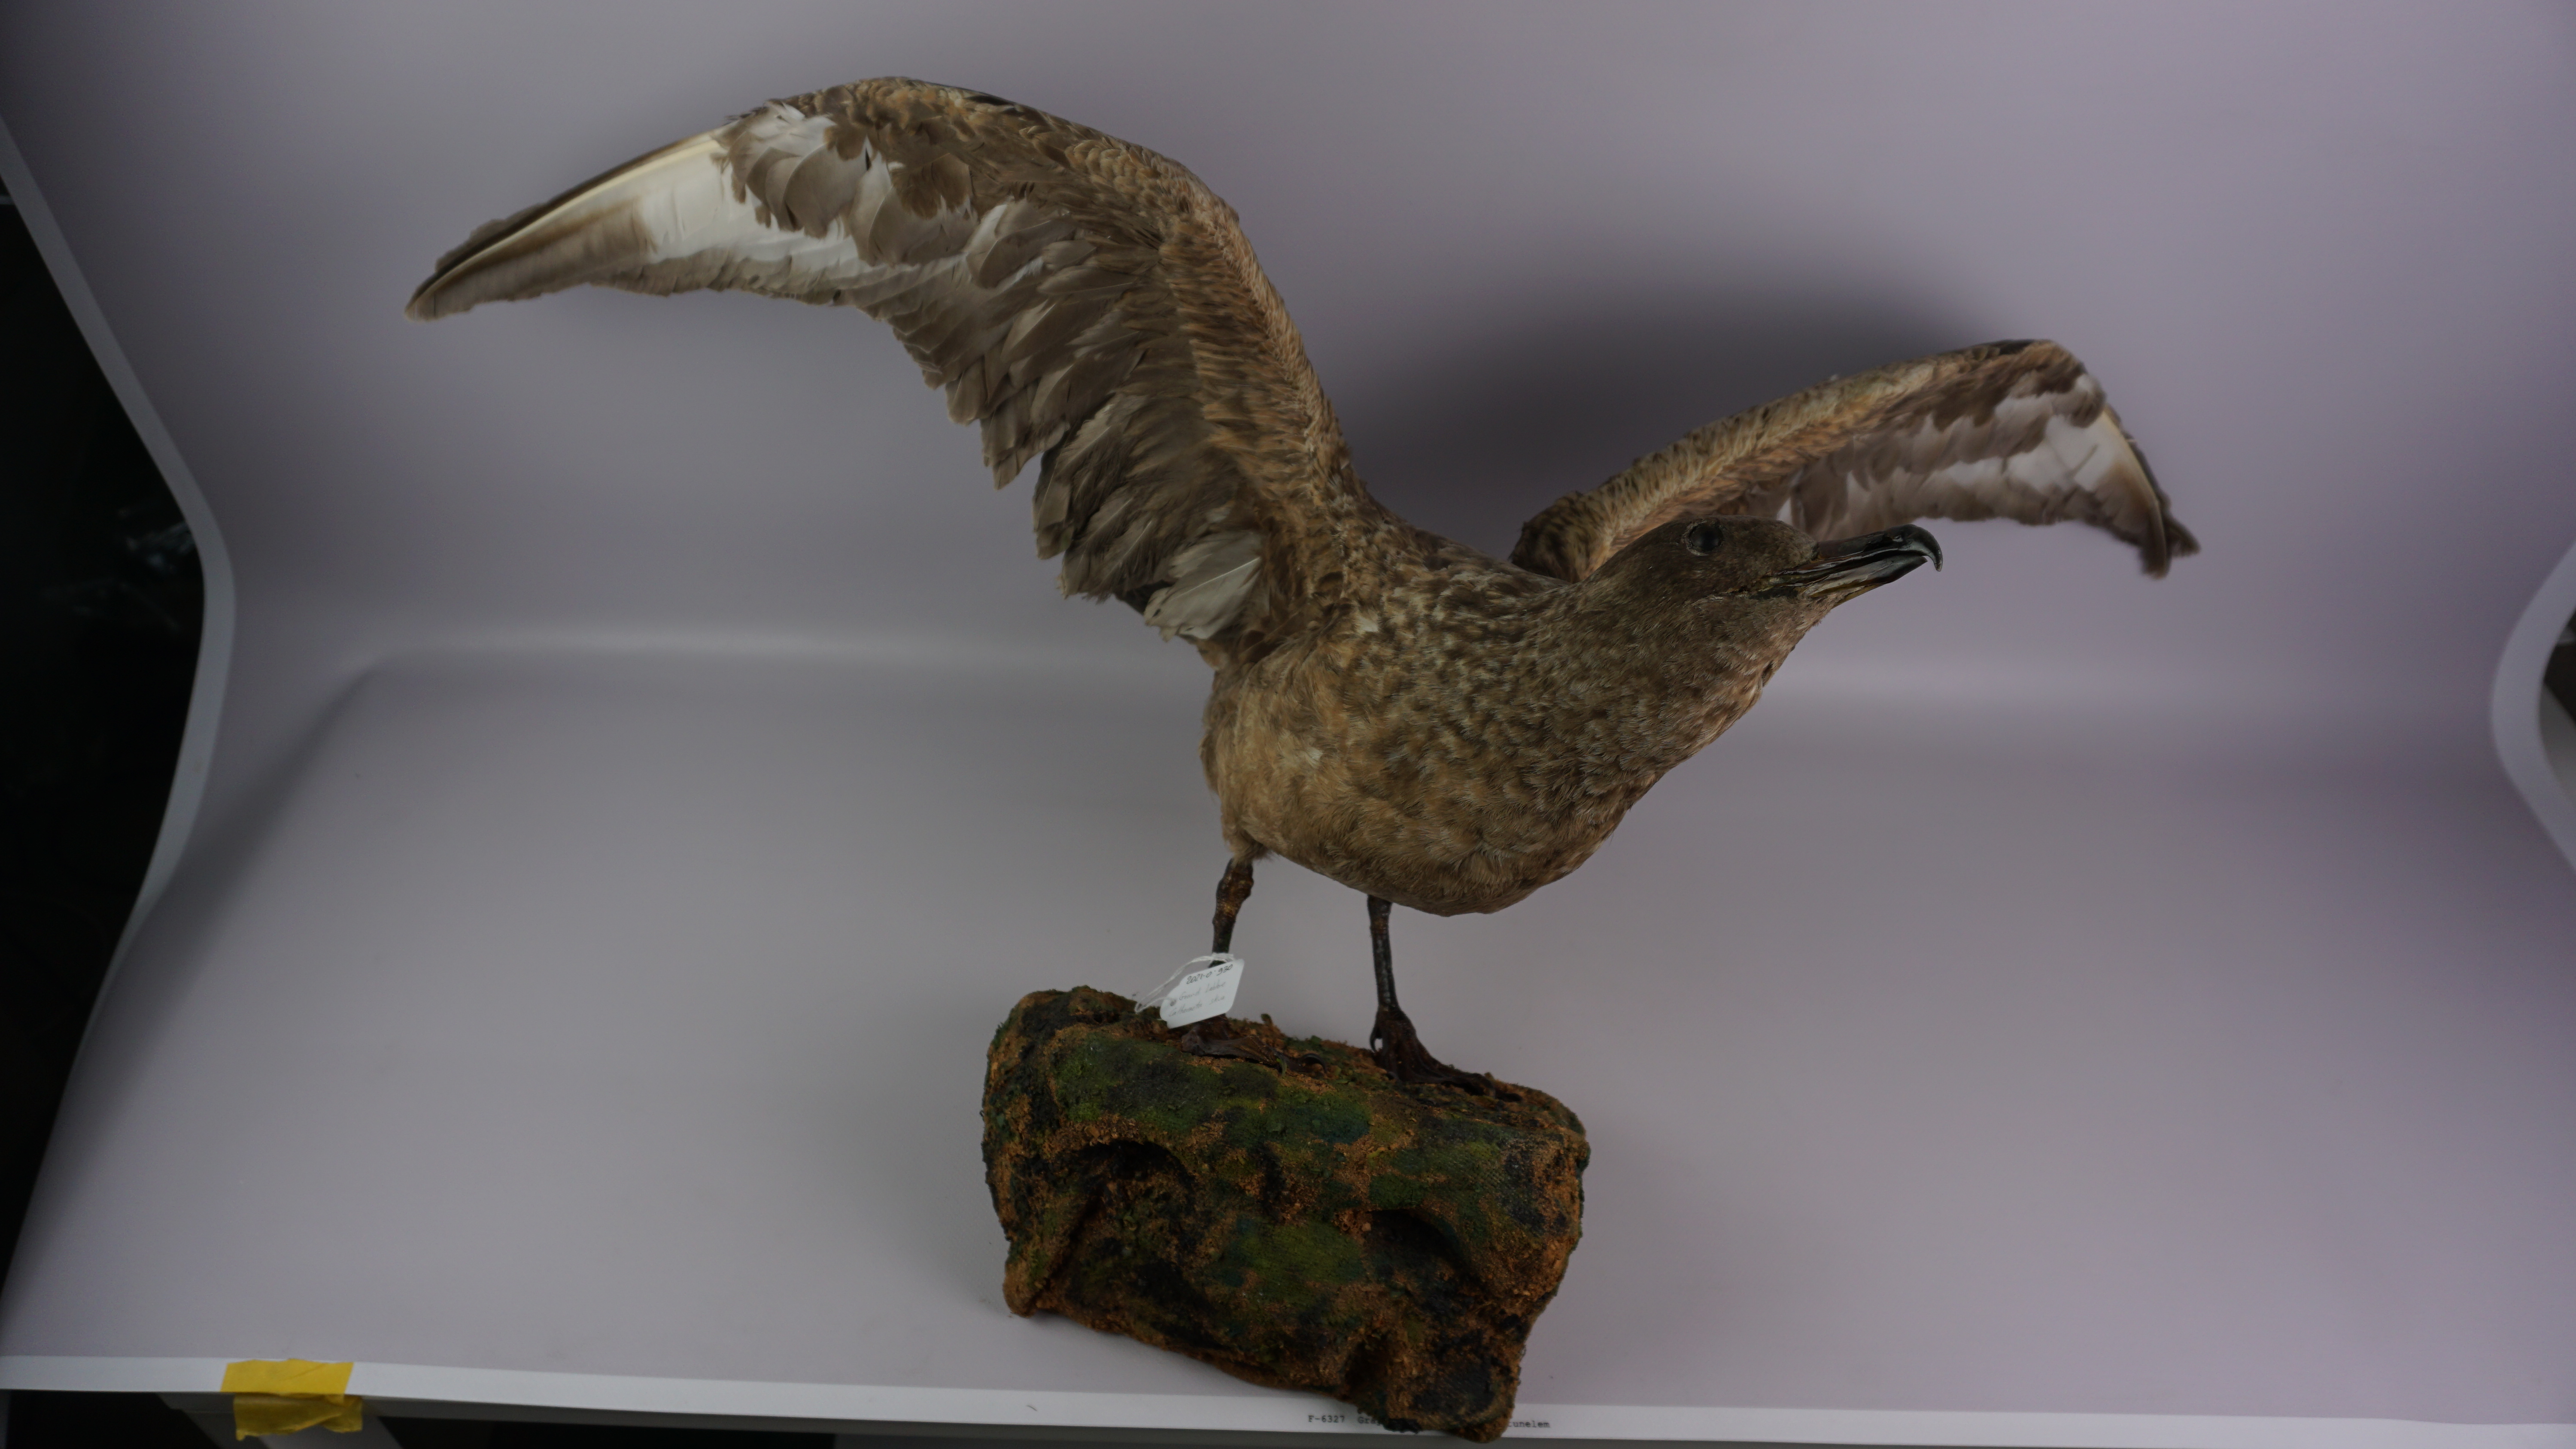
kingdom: Animalia
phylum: Chordata
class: Aves
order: Charadriiformes
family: Stercorariidae
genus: Stercorarius
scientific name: Stercorarius skua
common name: Great skua
